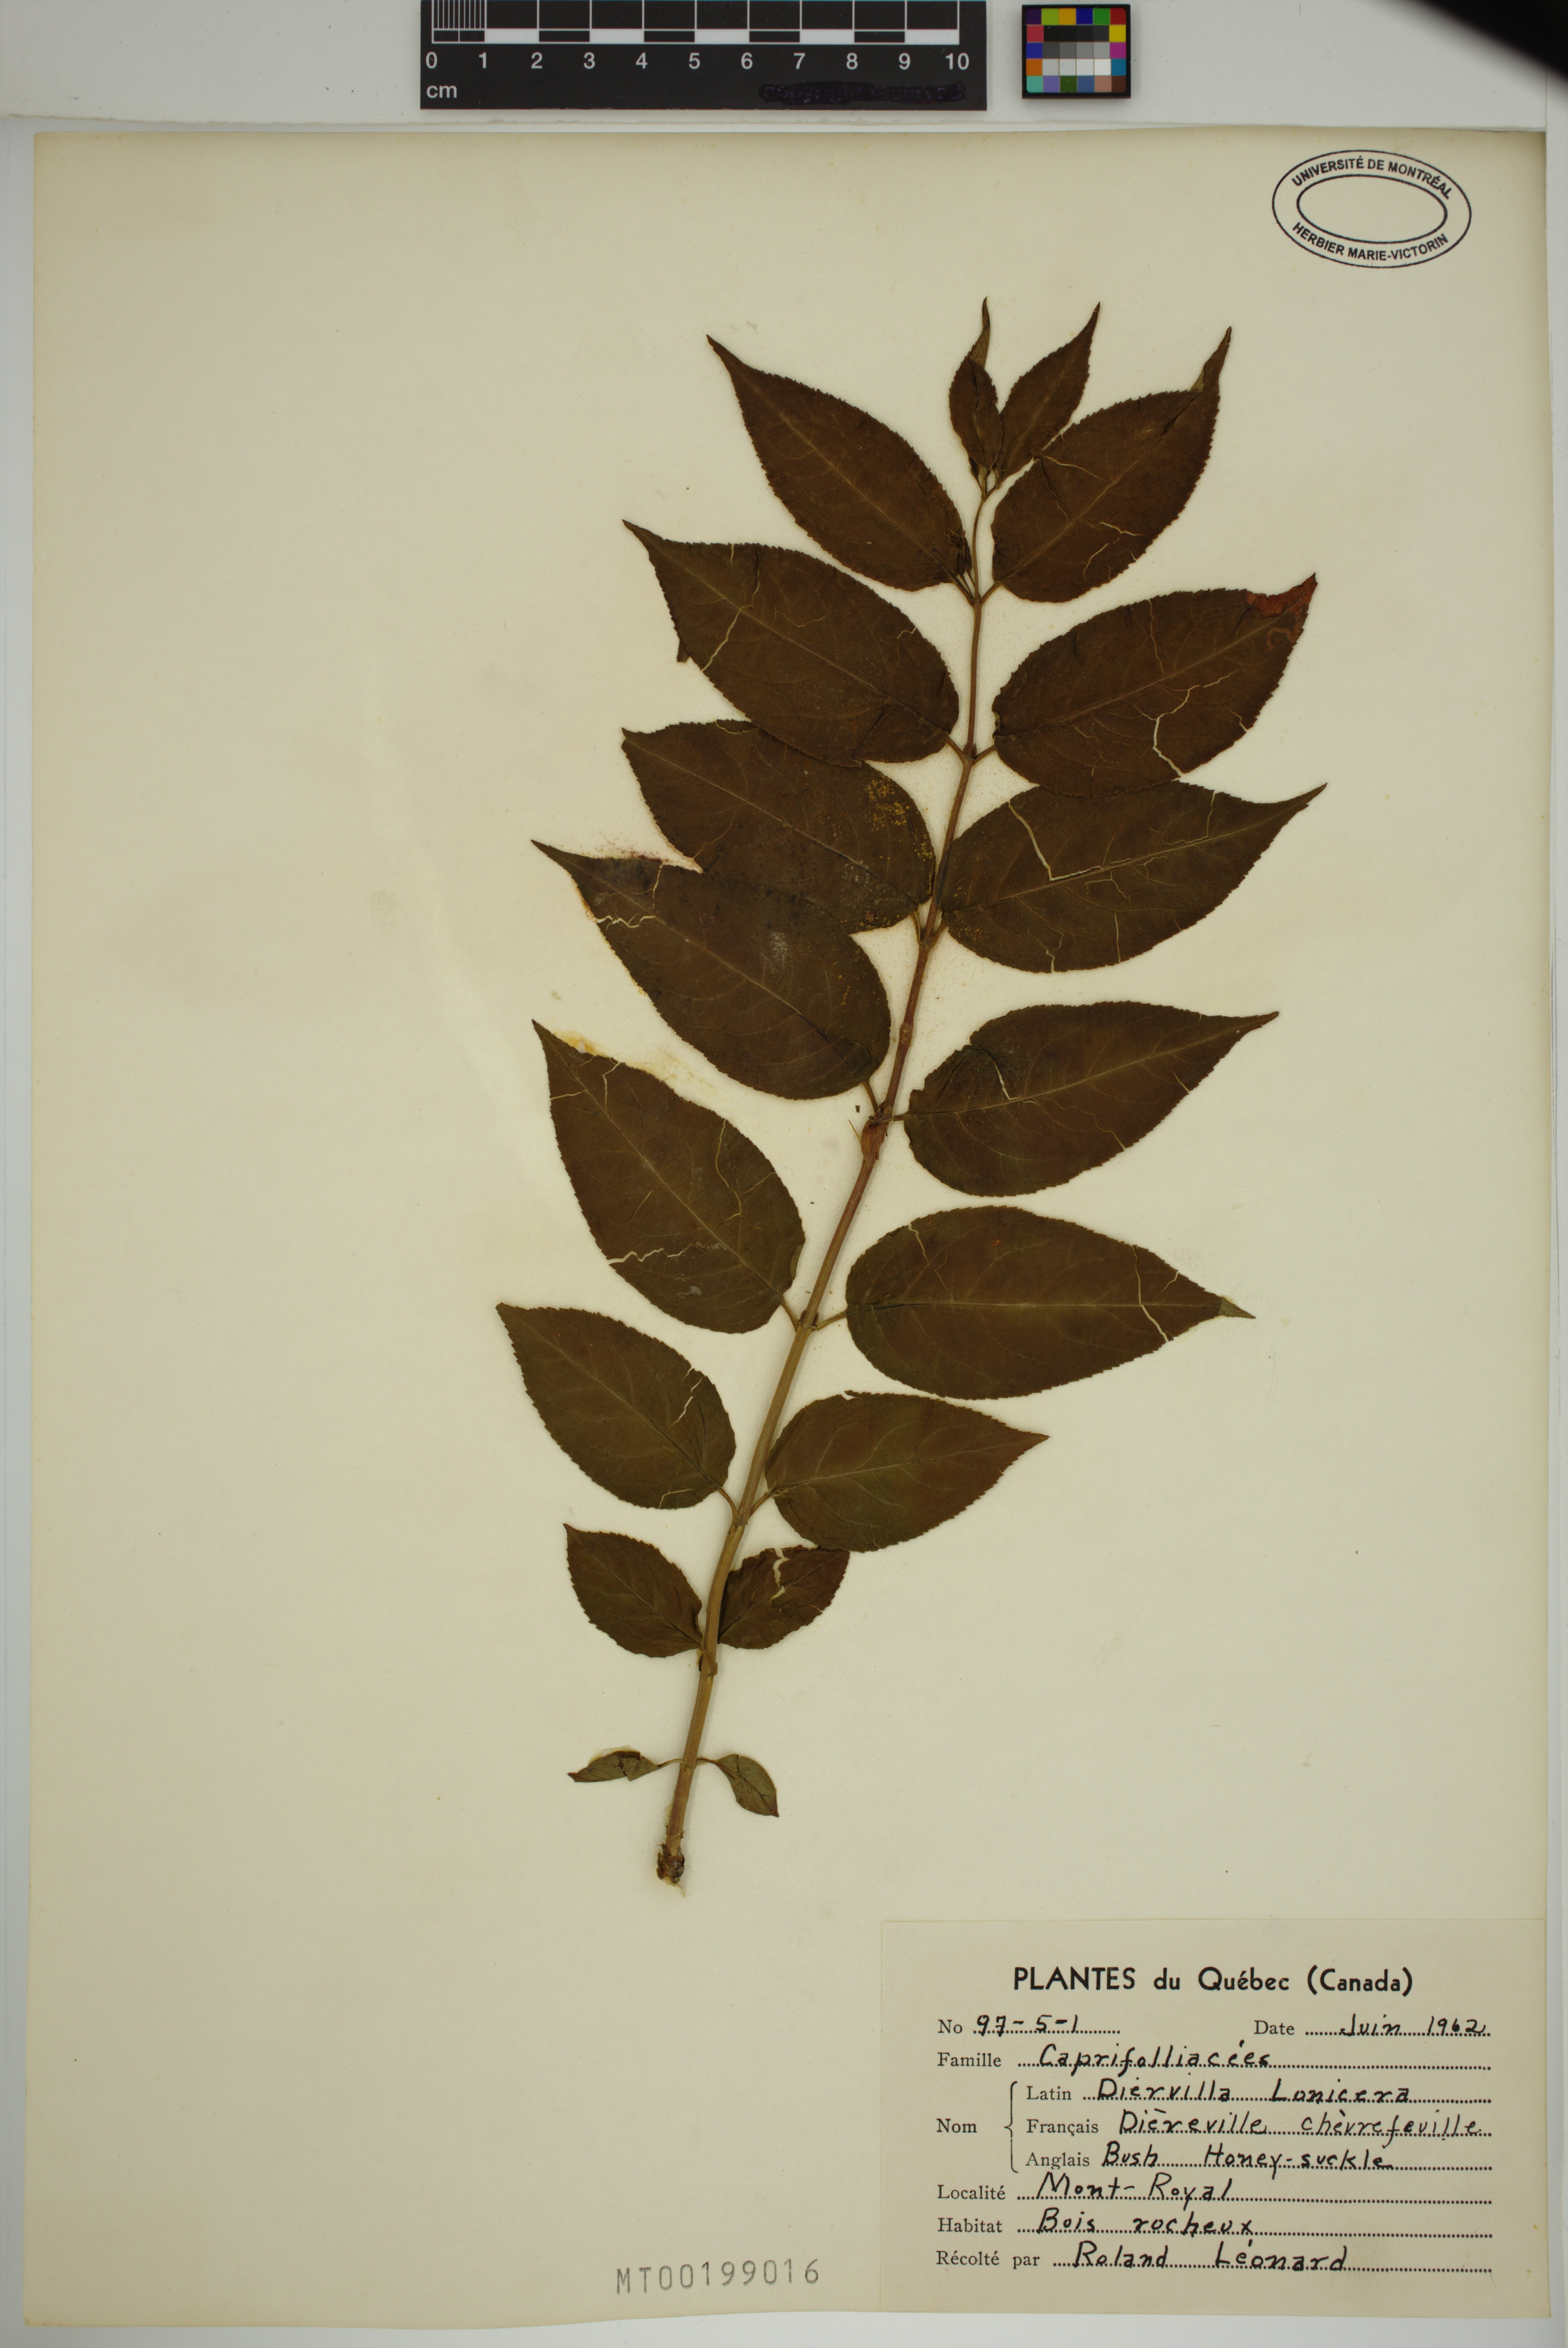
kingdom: Plantae
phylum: Tracheophyta
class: Magnoliopsida
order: Dipsacales
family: Caprifoliaceae
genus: Diervilla
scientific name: Diervilla lonicera
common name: Bush-honeysuckle
